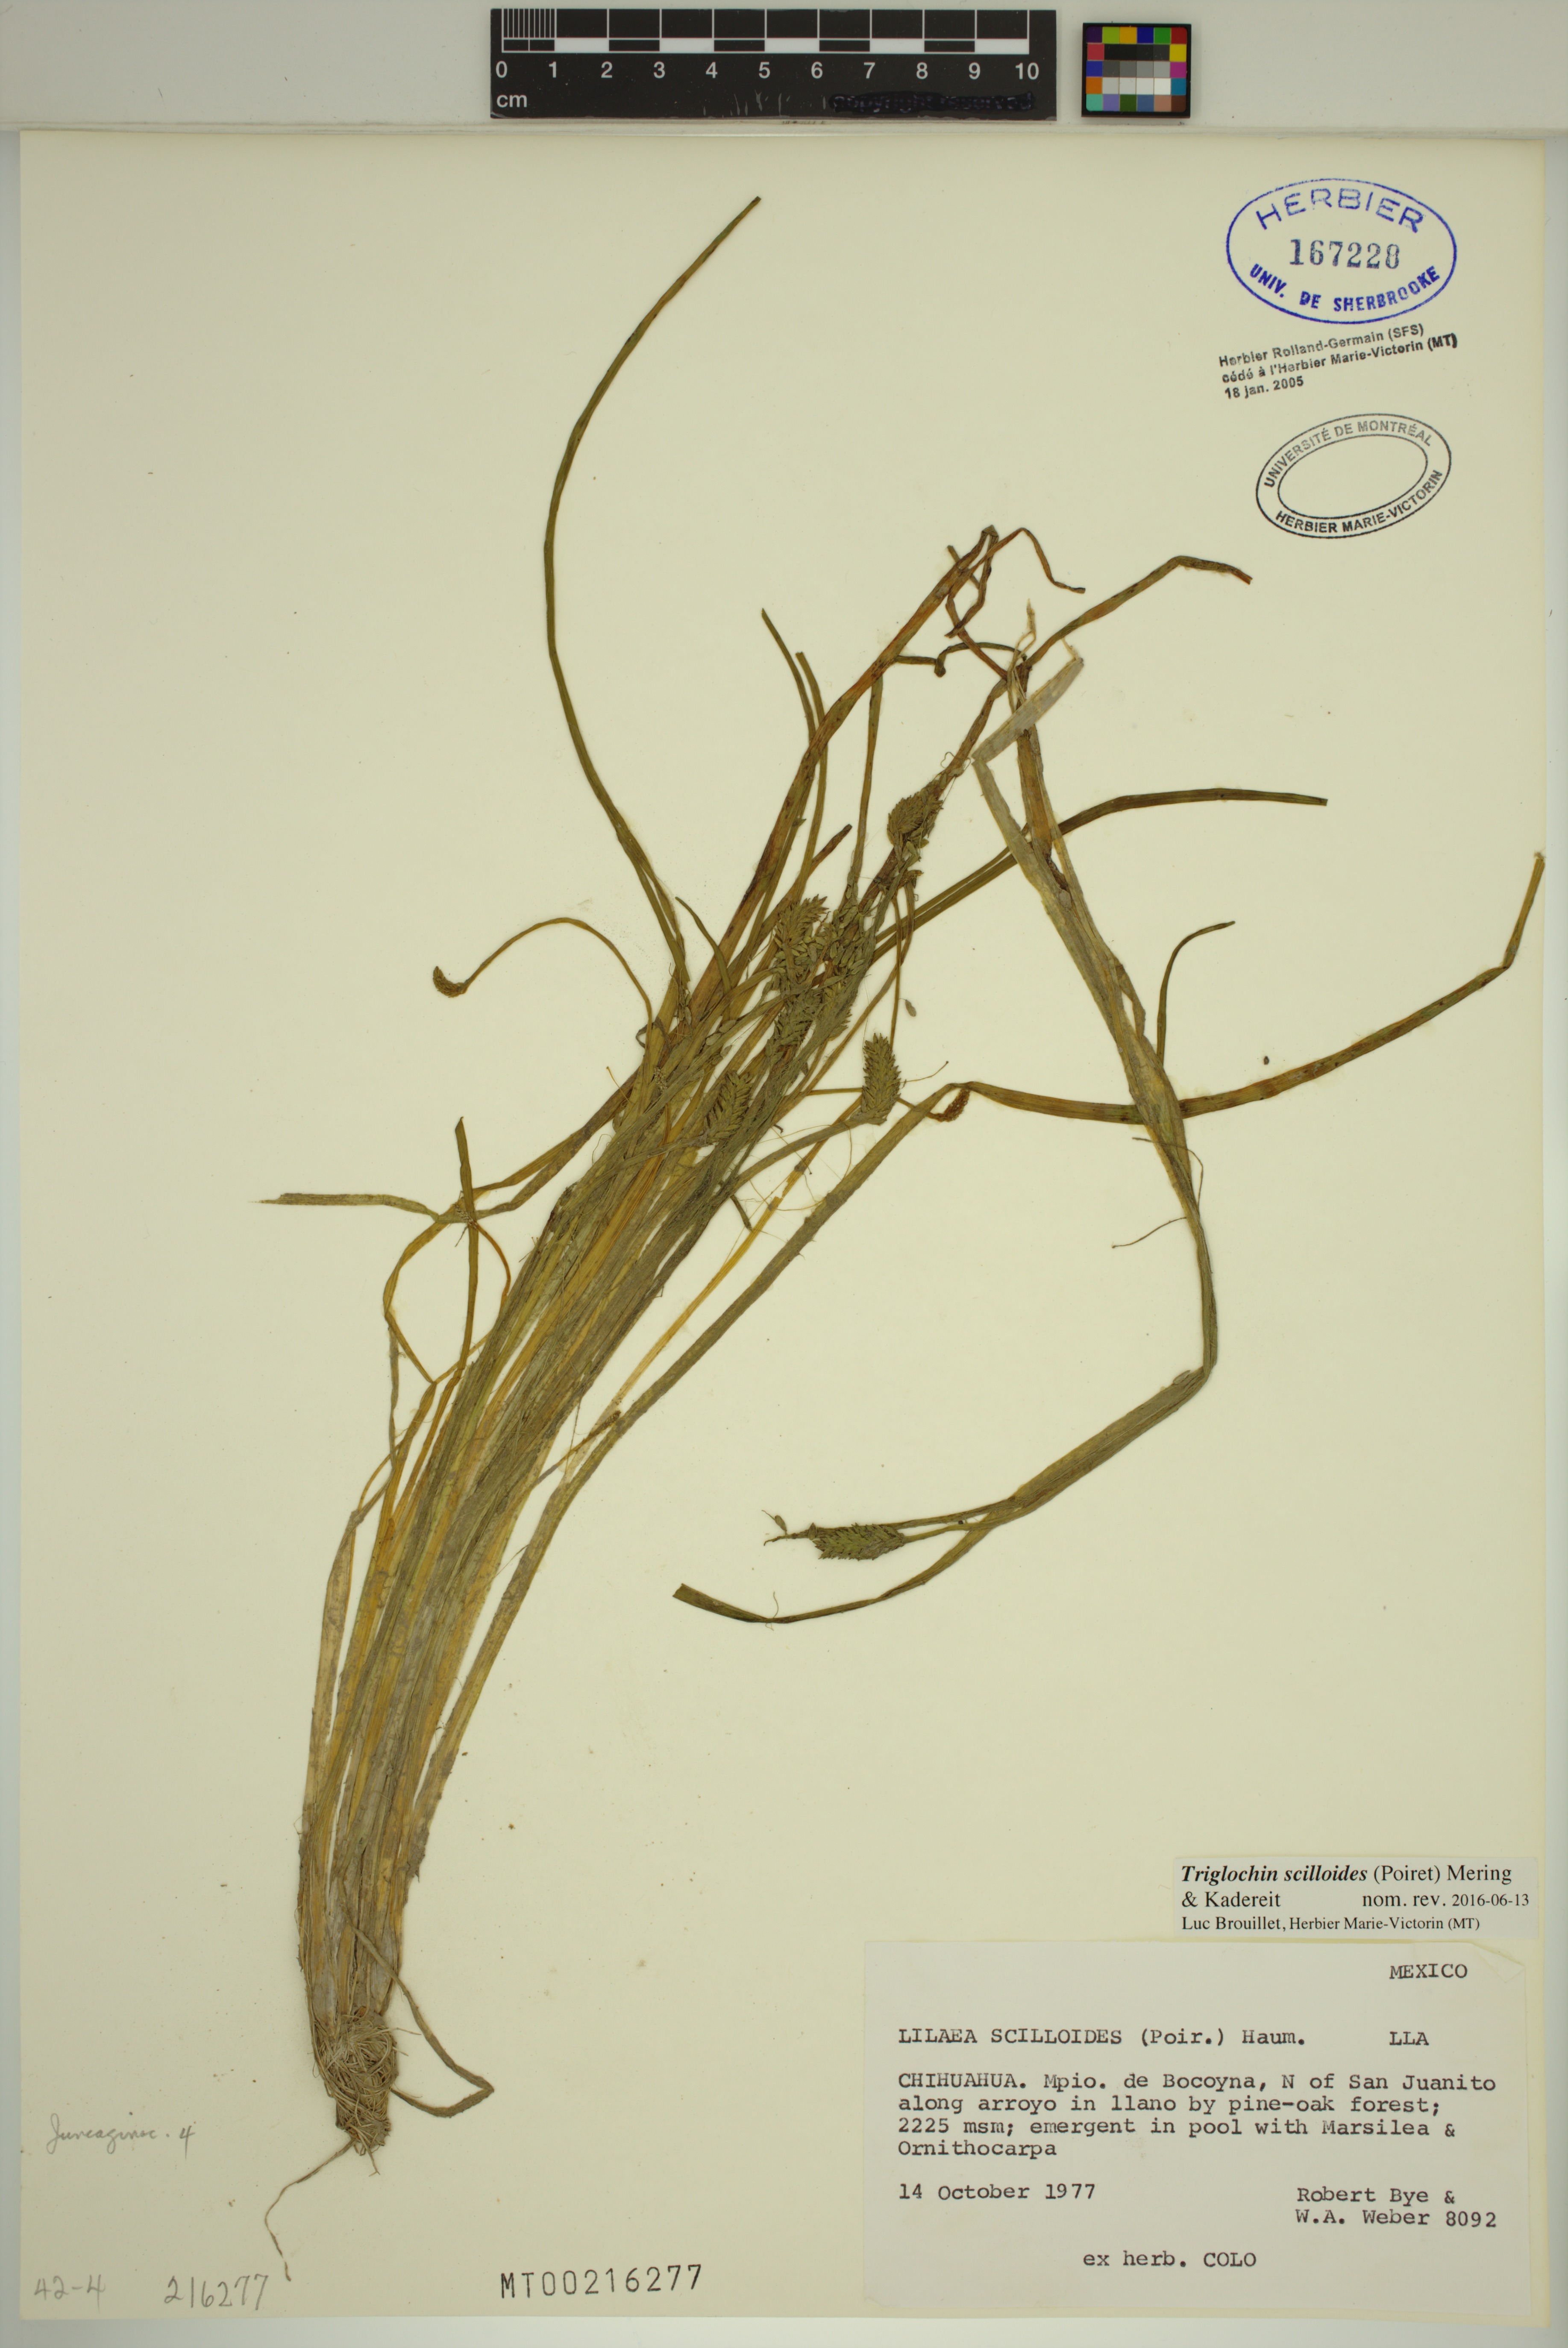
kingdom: Plantae
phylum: Tracheophyta
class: Liliopsida
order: Alismatales
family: Juncaginaceae
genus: Triglochin
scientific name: Triglochin scilloides
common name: Awl-leaved lilaea
